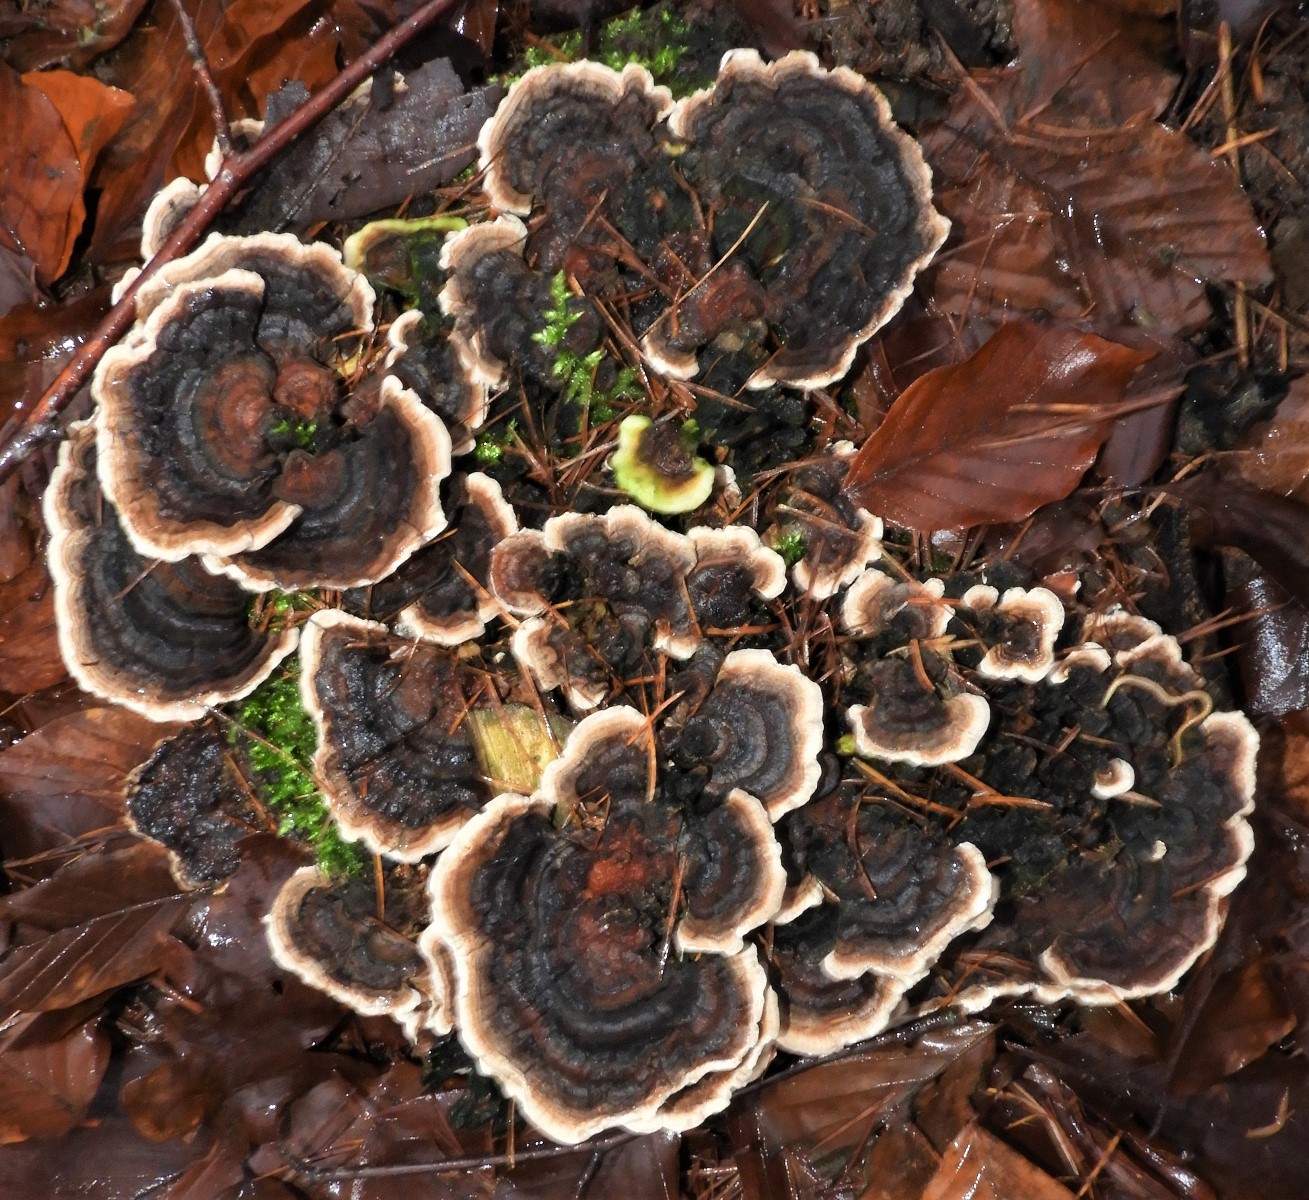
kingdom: Fungi
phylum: Basidiomycota
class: Agaricomycetes
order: Polyporales
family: Polyporaceae
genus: Trametes
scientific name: Trametes versicolor
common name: broget læderporesvamp
